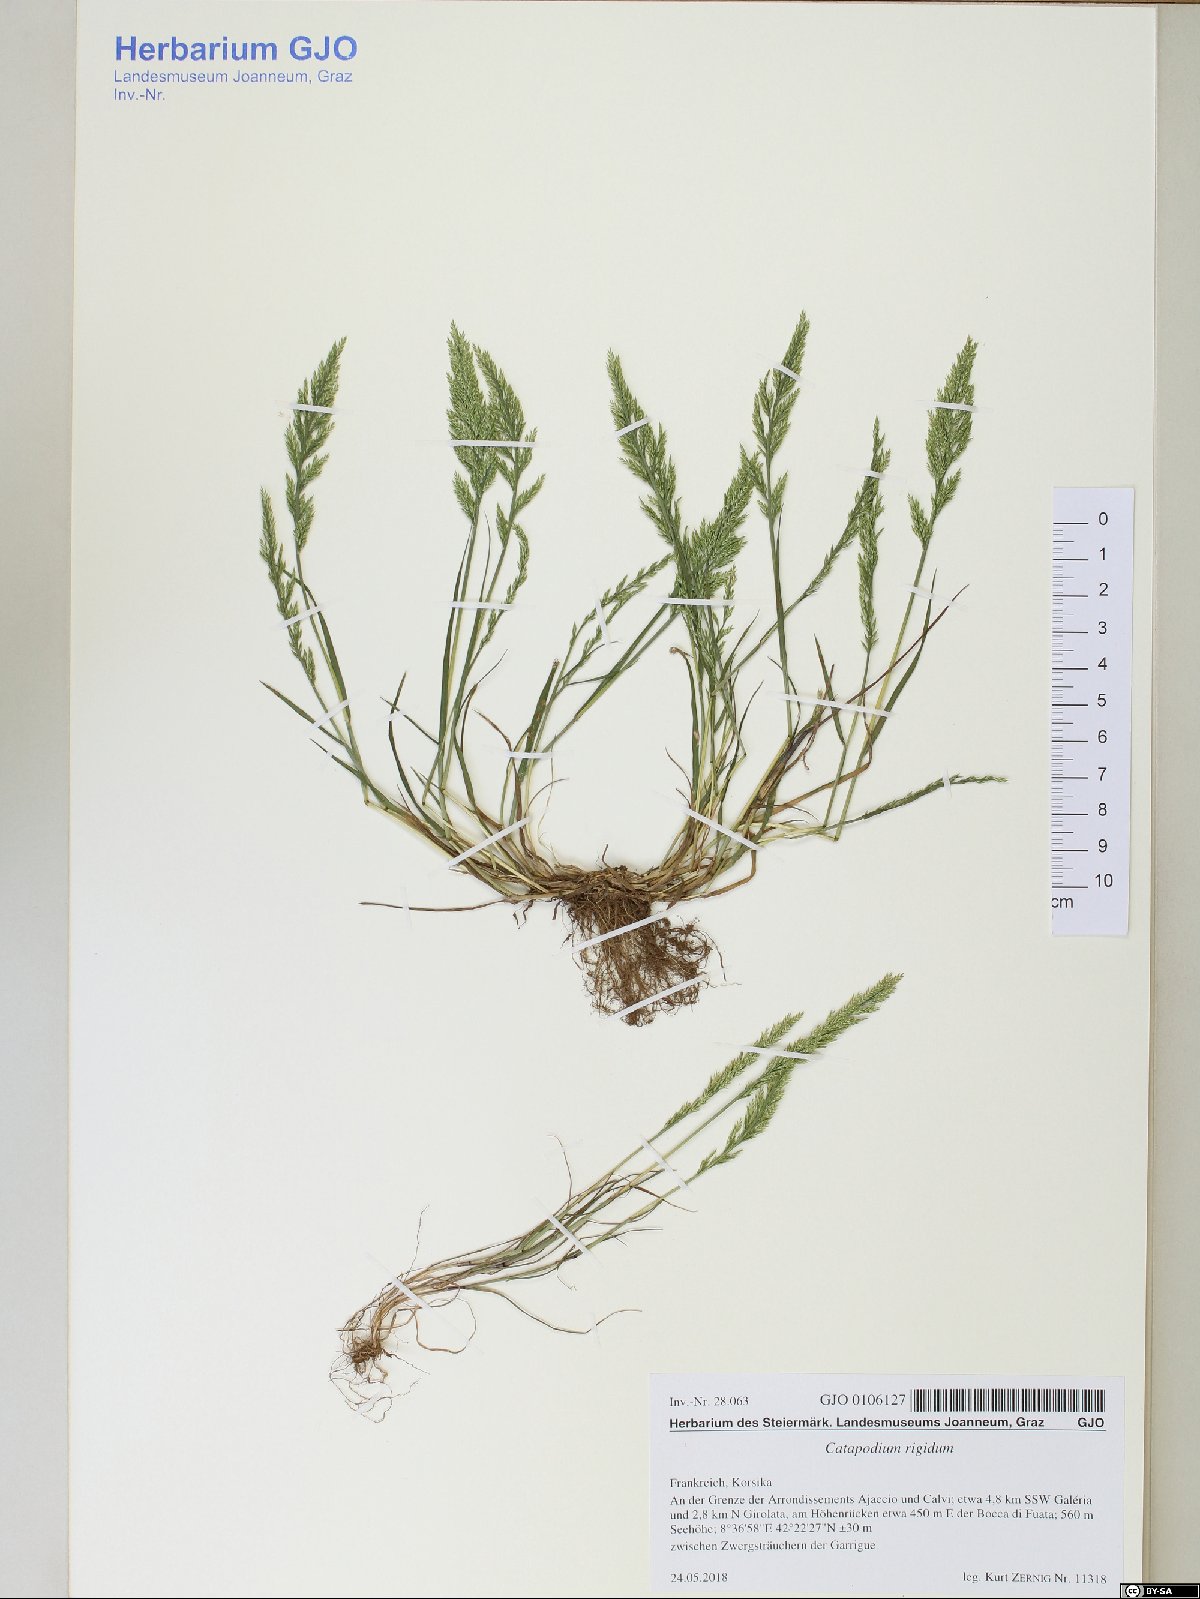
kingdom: Plantae
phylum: Tracheophyta
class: Liliopsida
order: Poales
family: Poaceae
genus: Catapodium
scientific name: Catapodium rigidum
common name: Fern-grass
